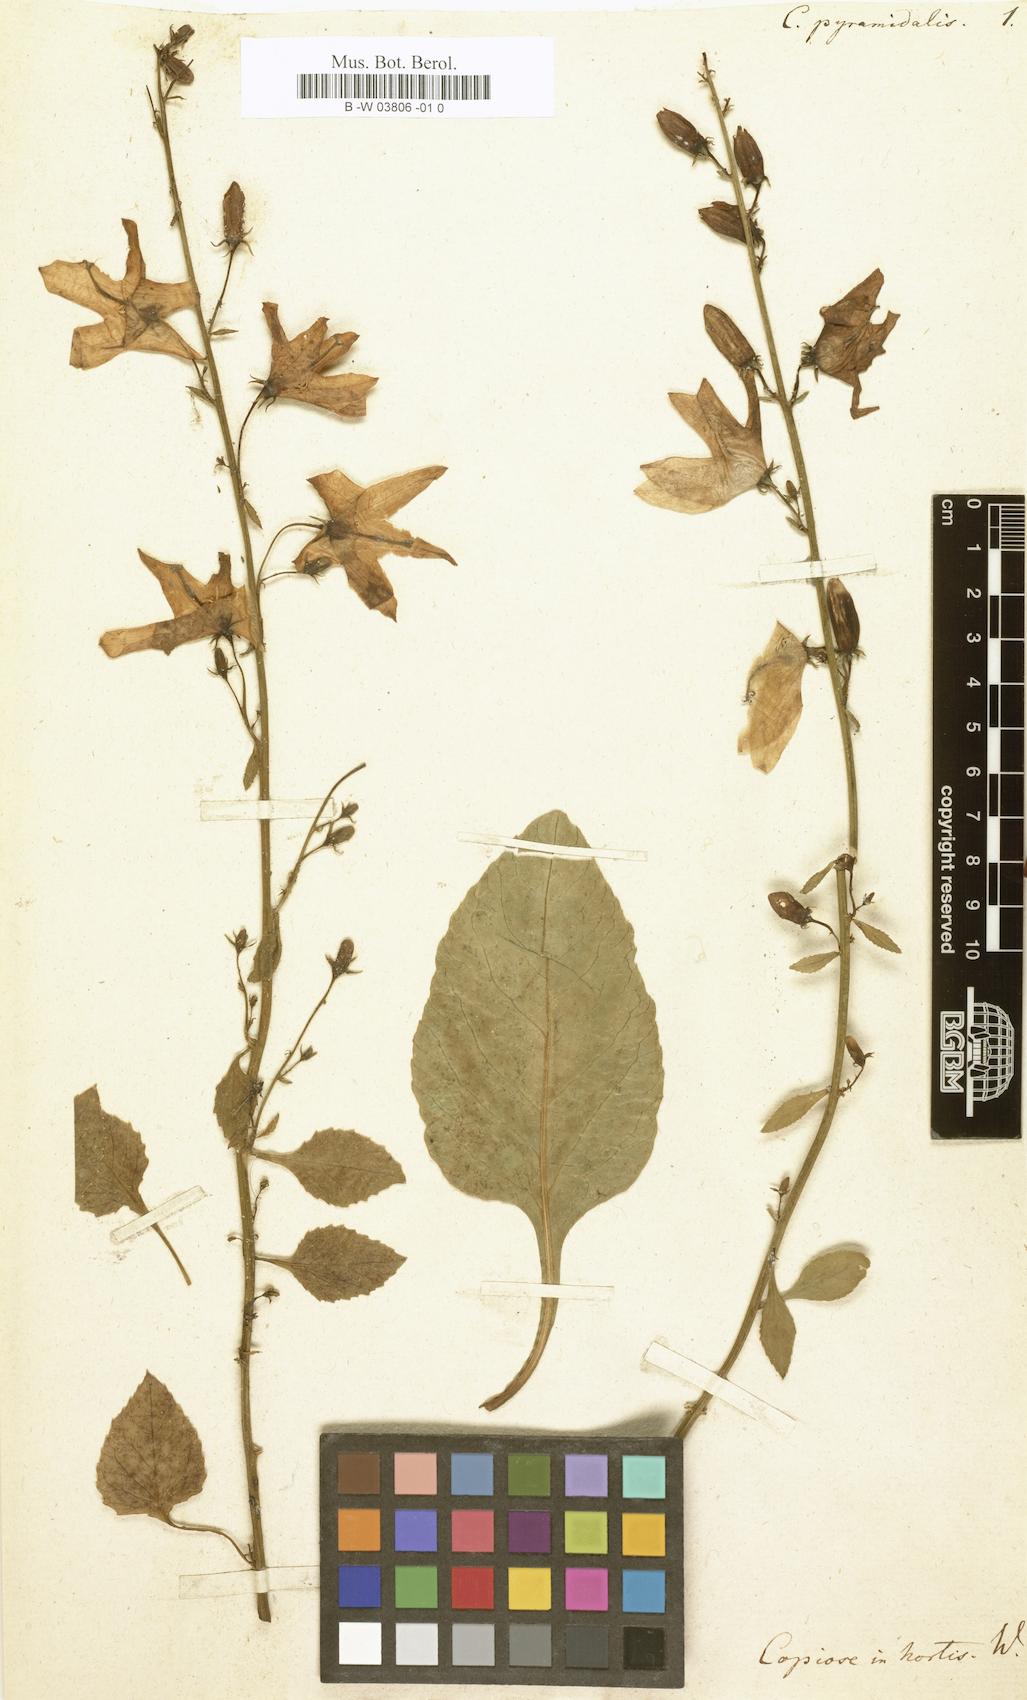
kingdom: Plantae
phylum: Tracheophyta
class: Magnoliopsida
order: Asterales
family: Campanulaceae
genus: Campanula
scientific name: Campanula pyramidalis
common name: Chimney bellflower
